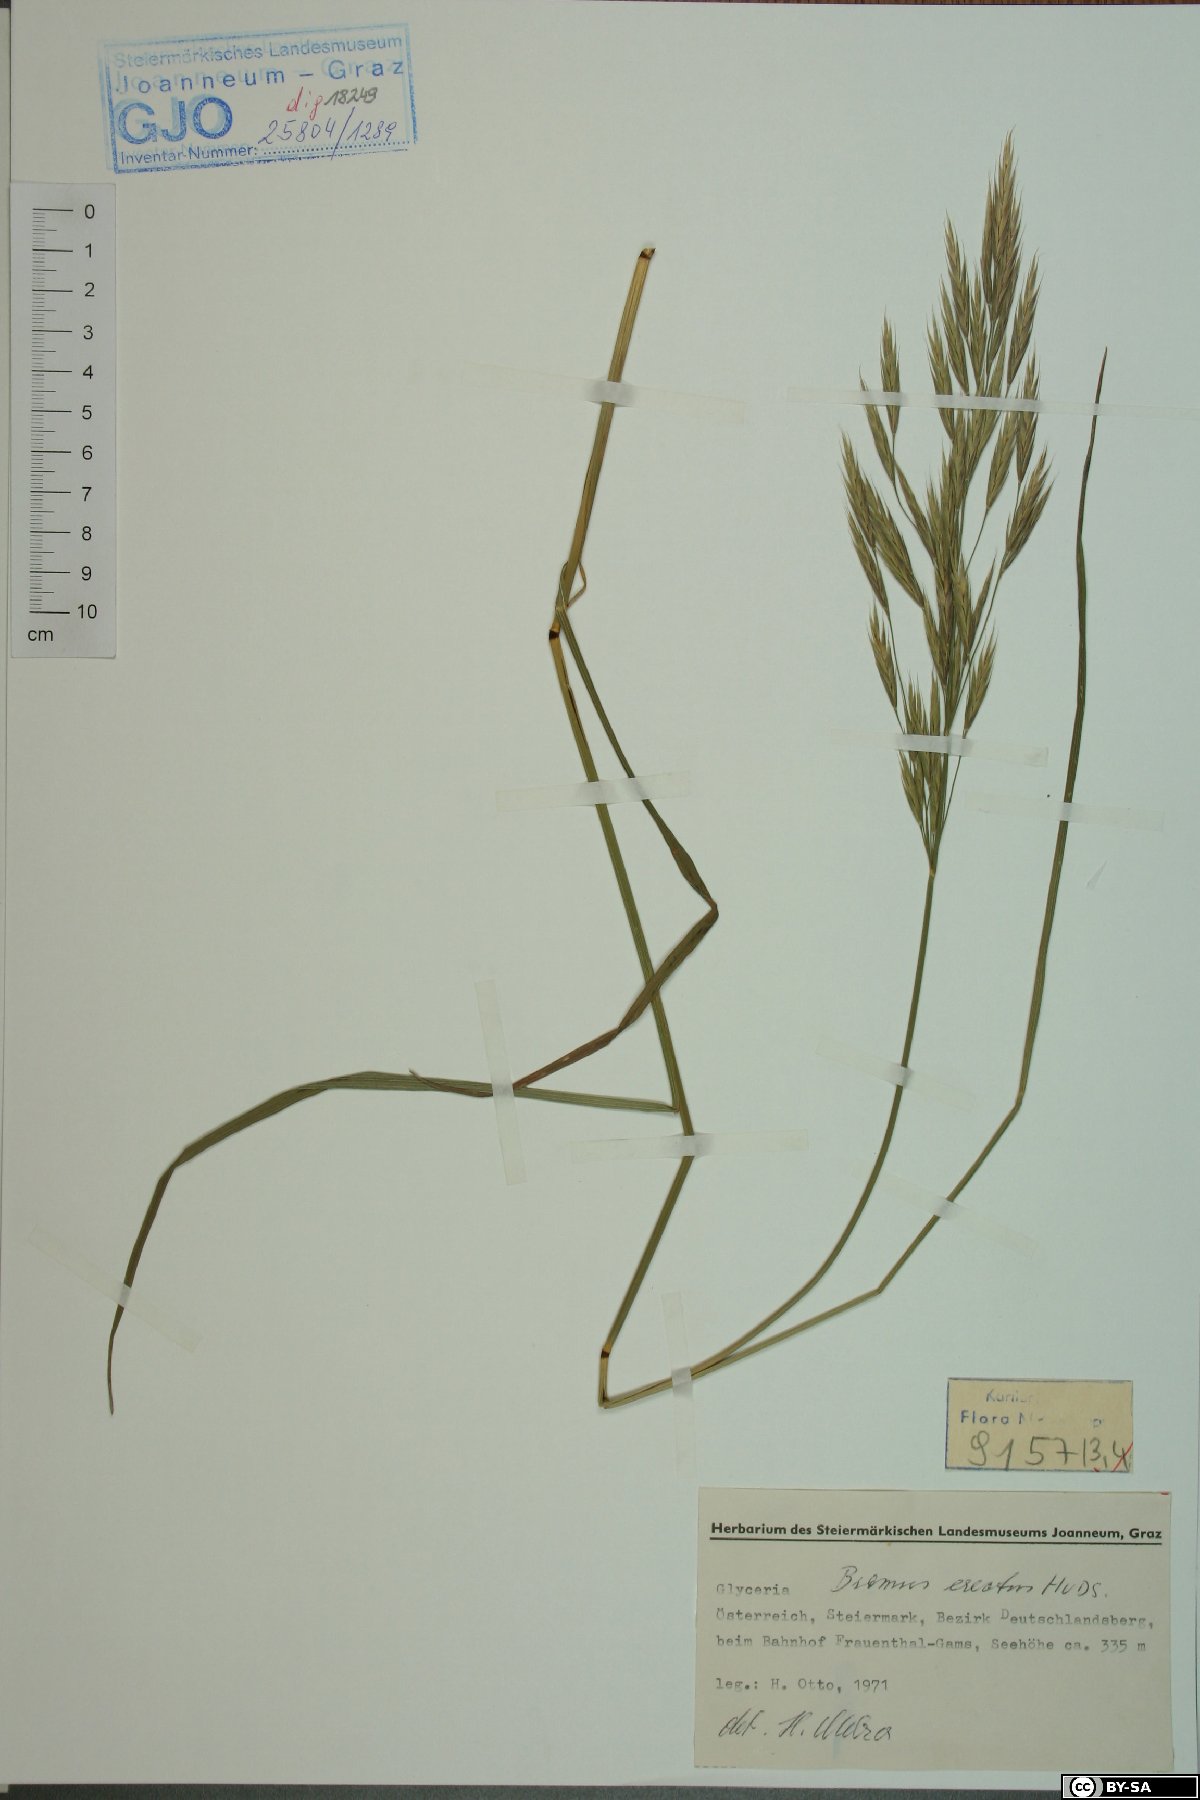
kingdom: Plantae
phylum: Tracheophyta
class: Liliopsida
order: Poales
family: Poaceae
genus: Bromus
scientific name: Bromus erectus
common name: Erect brome
